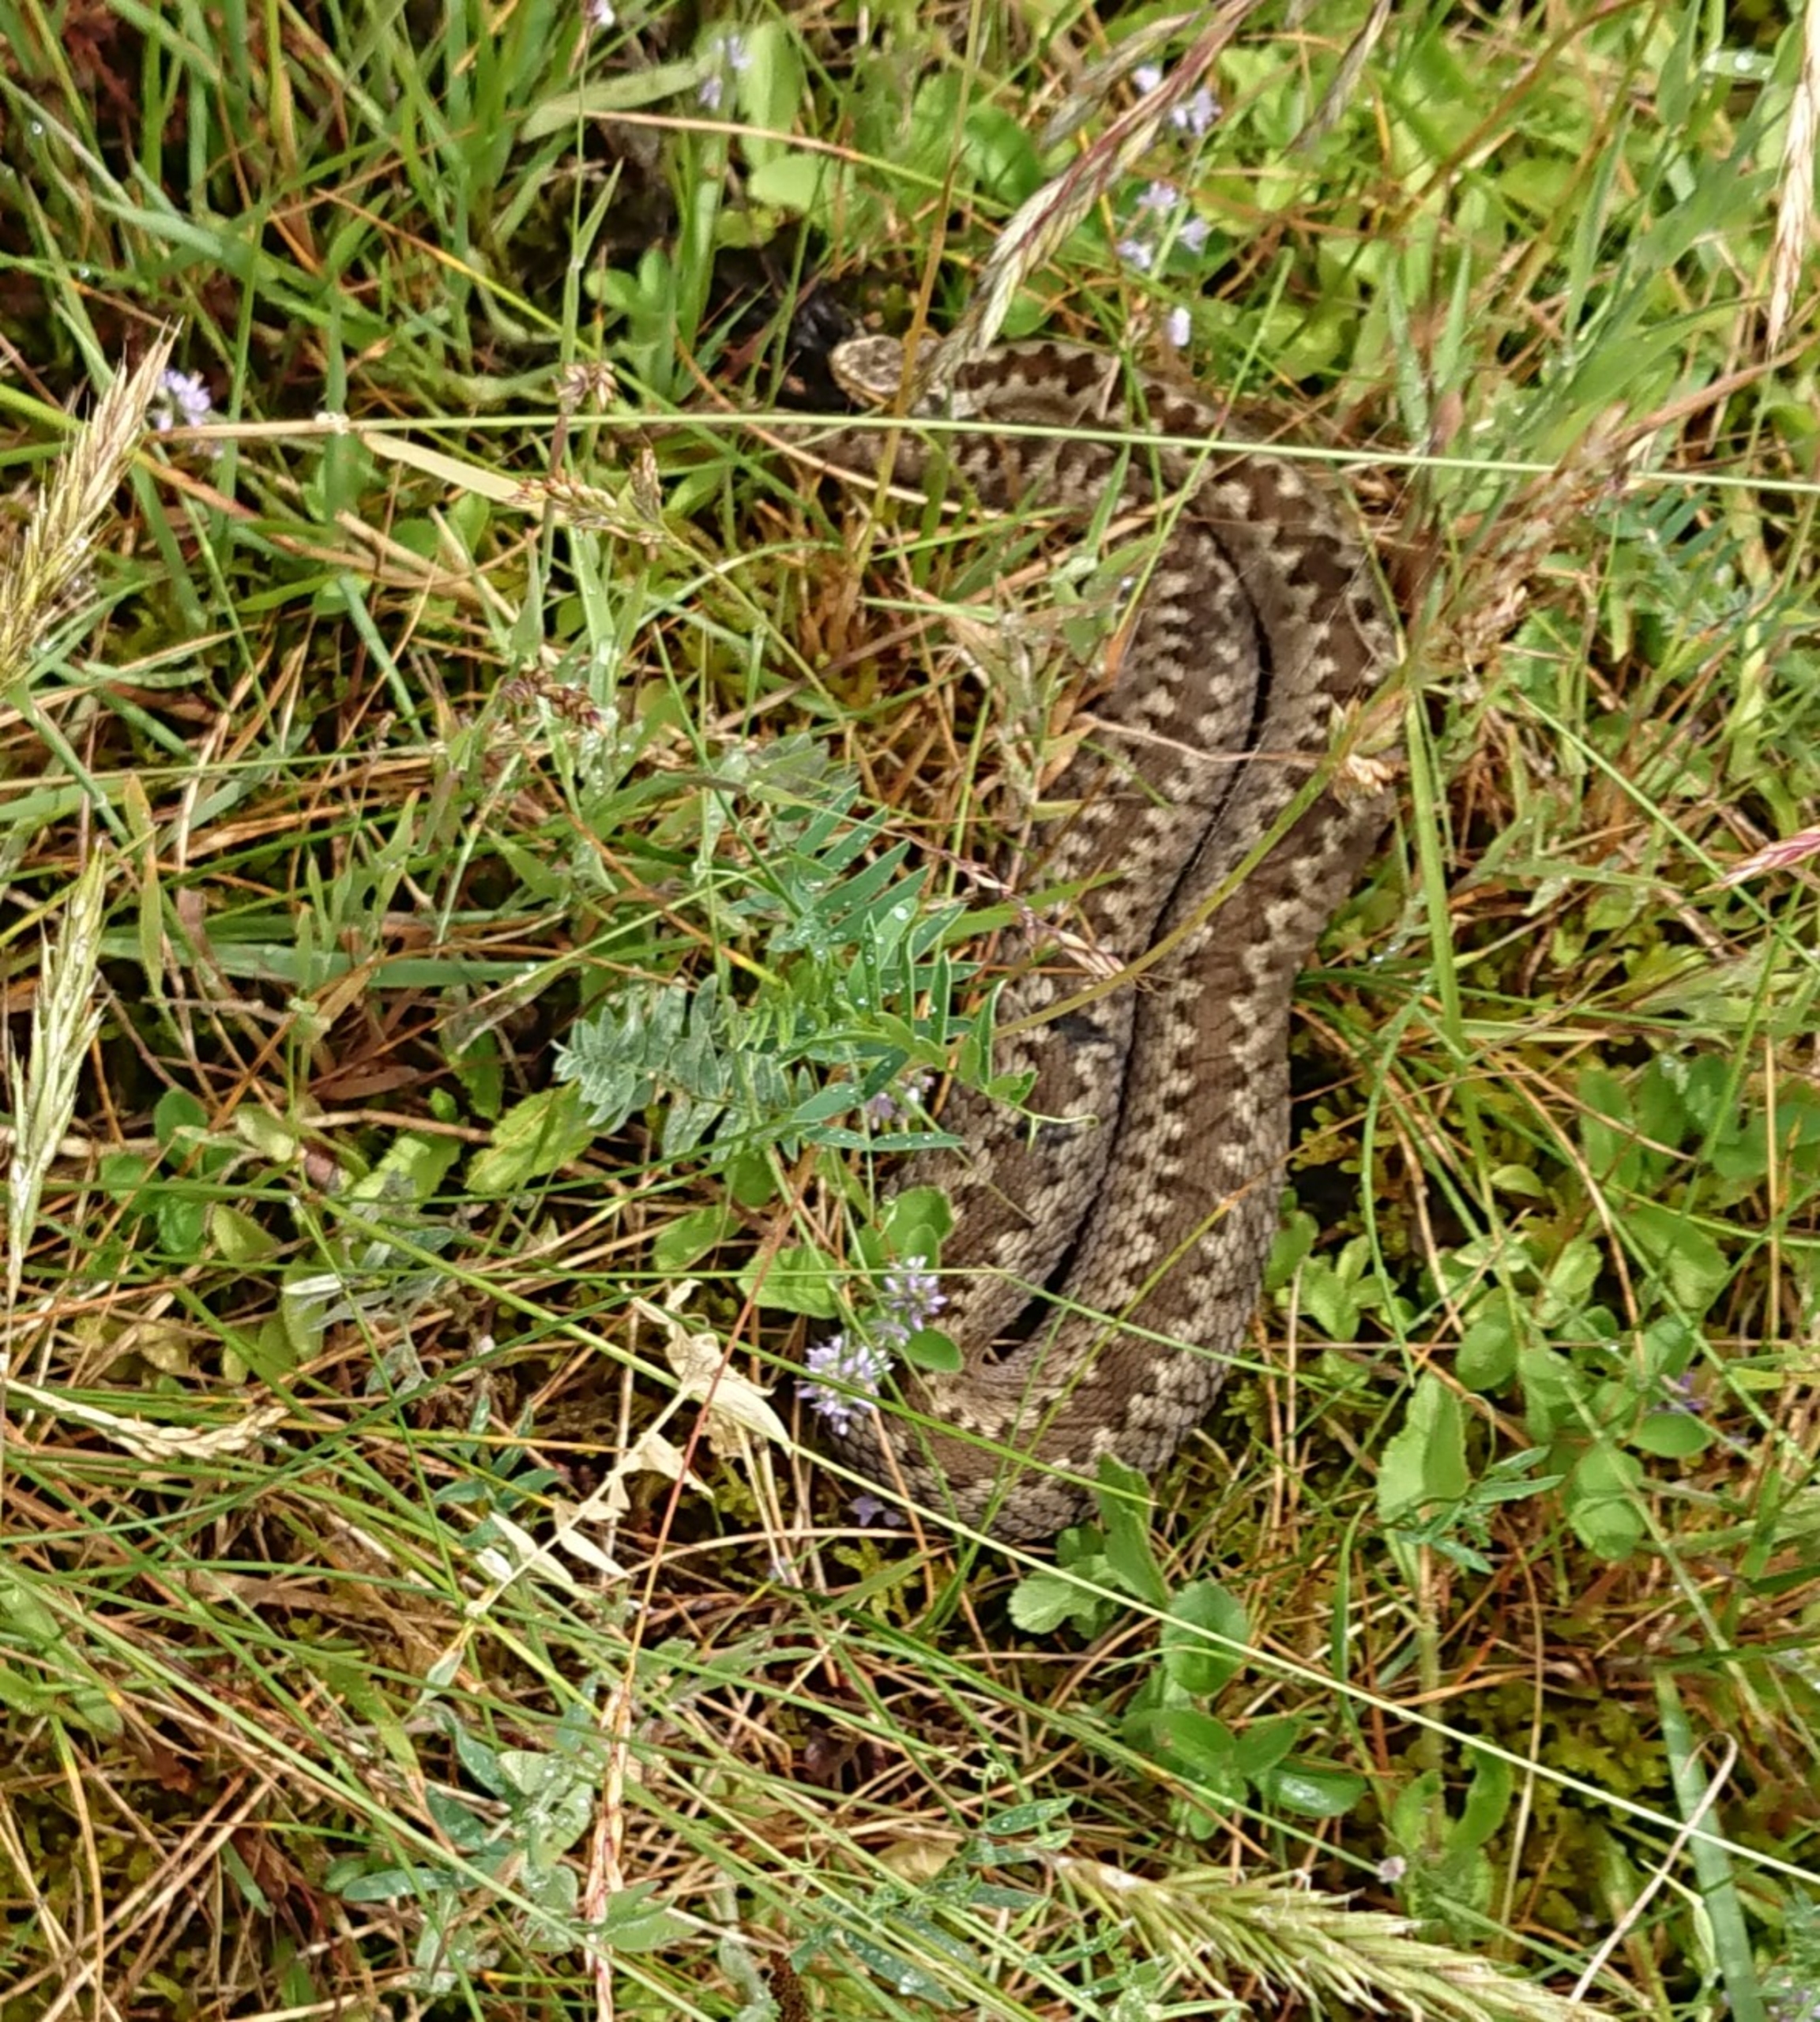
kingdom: Animalia
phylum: Chordata
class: Squamata
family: Viperidae
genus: Vipera
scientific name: Vipera berus
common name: Hugorm
